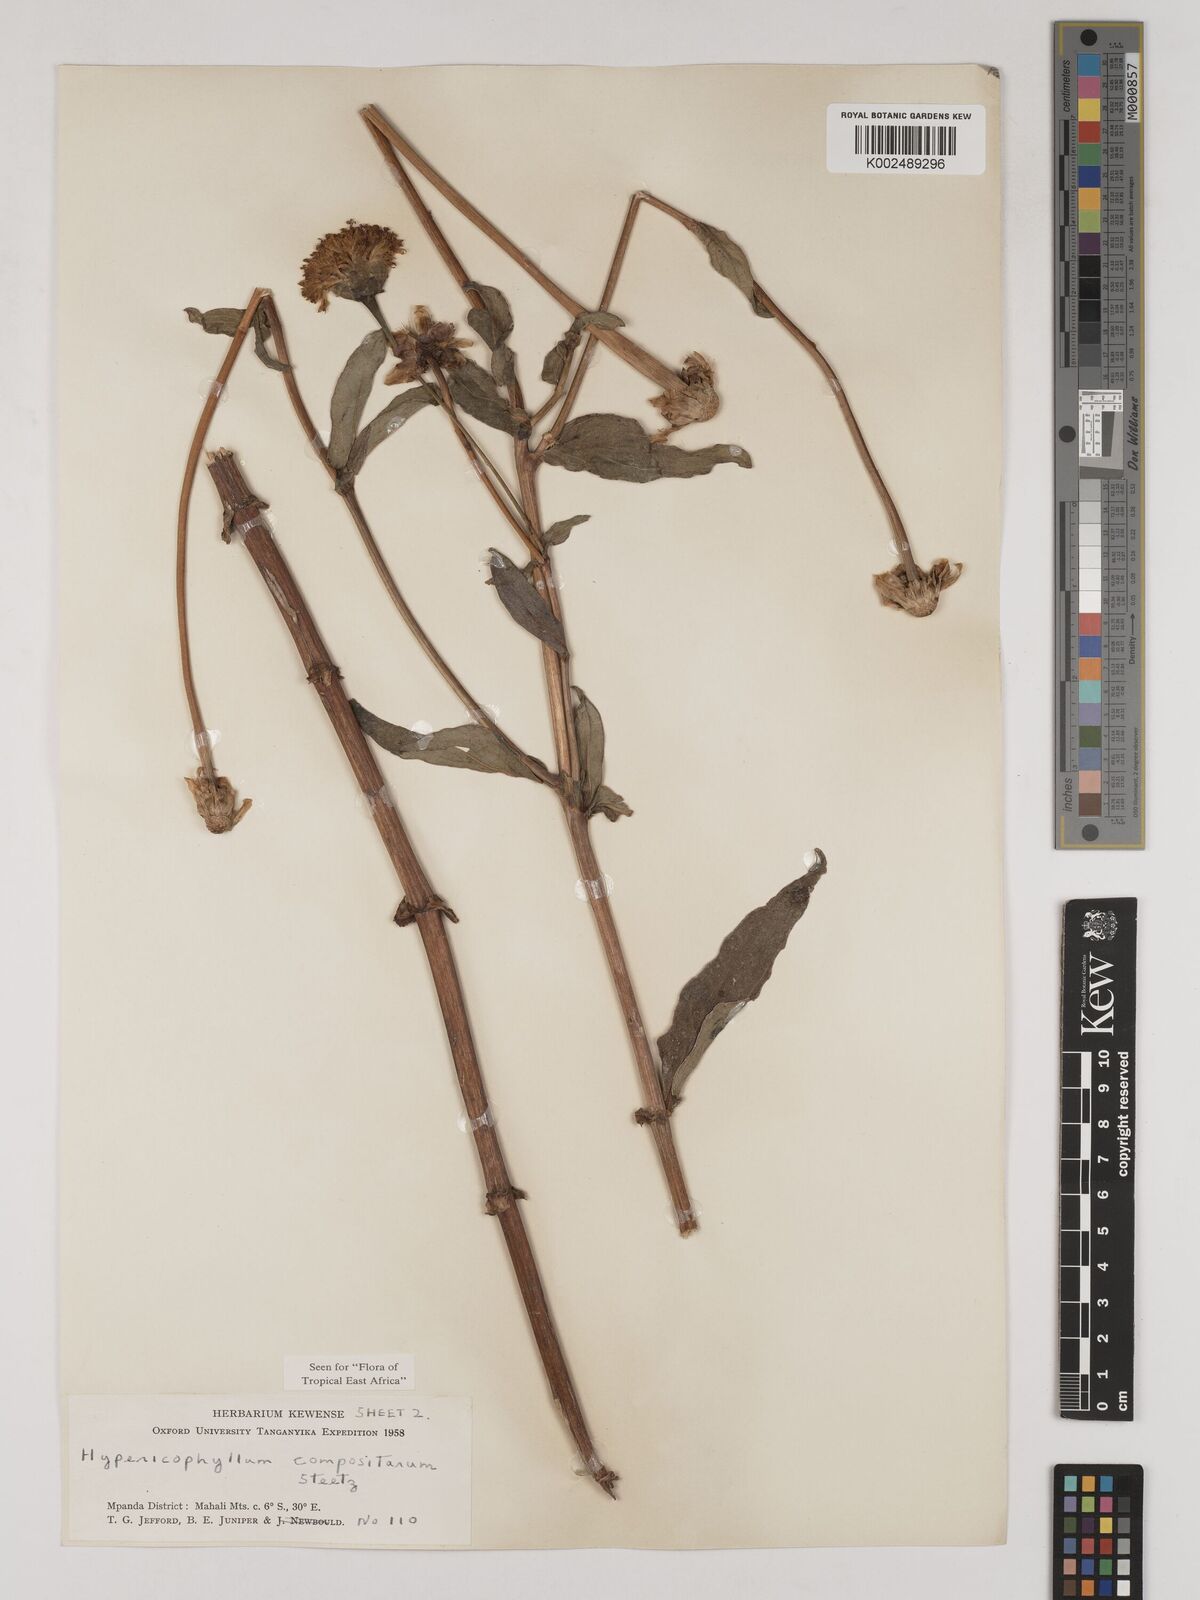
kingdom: Plantae
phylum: Tracheophyta
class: Magnoliopsida
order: Asterales
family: Asteraceae
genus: Hypericophyllum
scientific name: Hypericophyllum elatum
